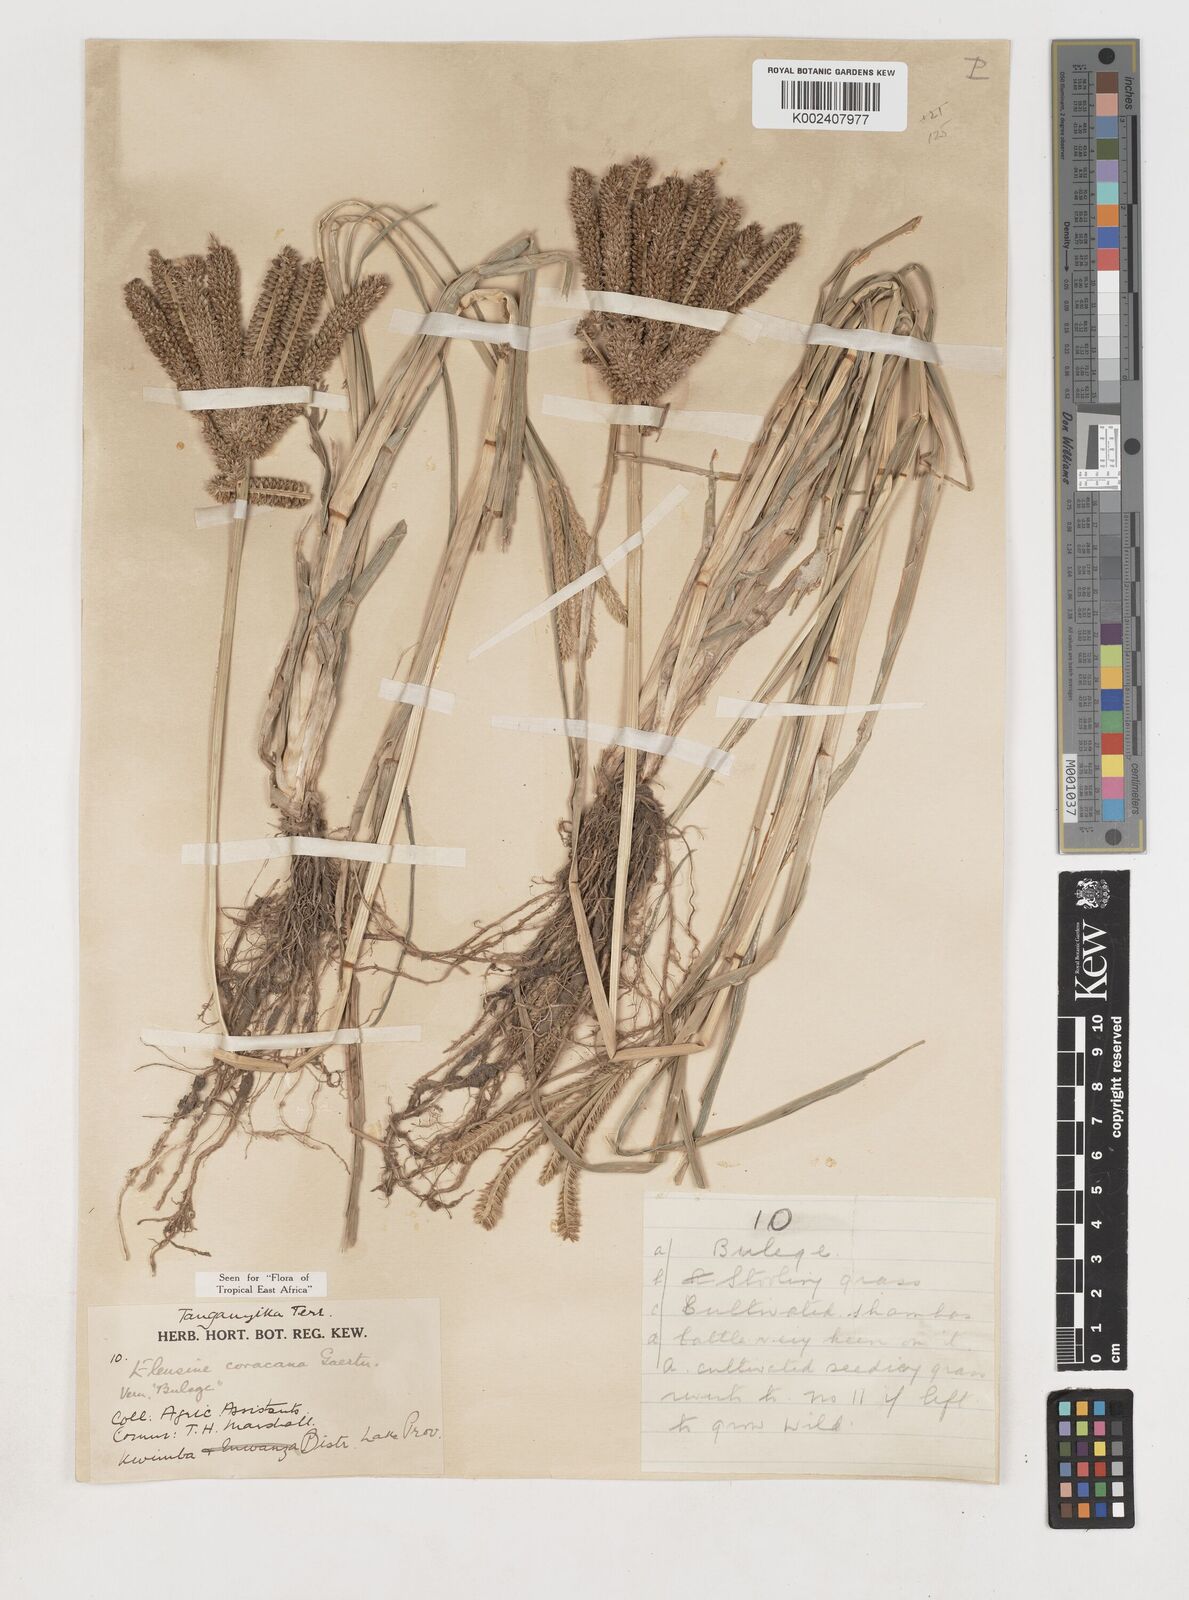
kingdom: Plantae
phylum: Tracheophyta
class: Liliopsida
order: Poales
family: Poaceae
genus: Eleusine
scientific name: Eleusine coracana
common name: Finger millet
